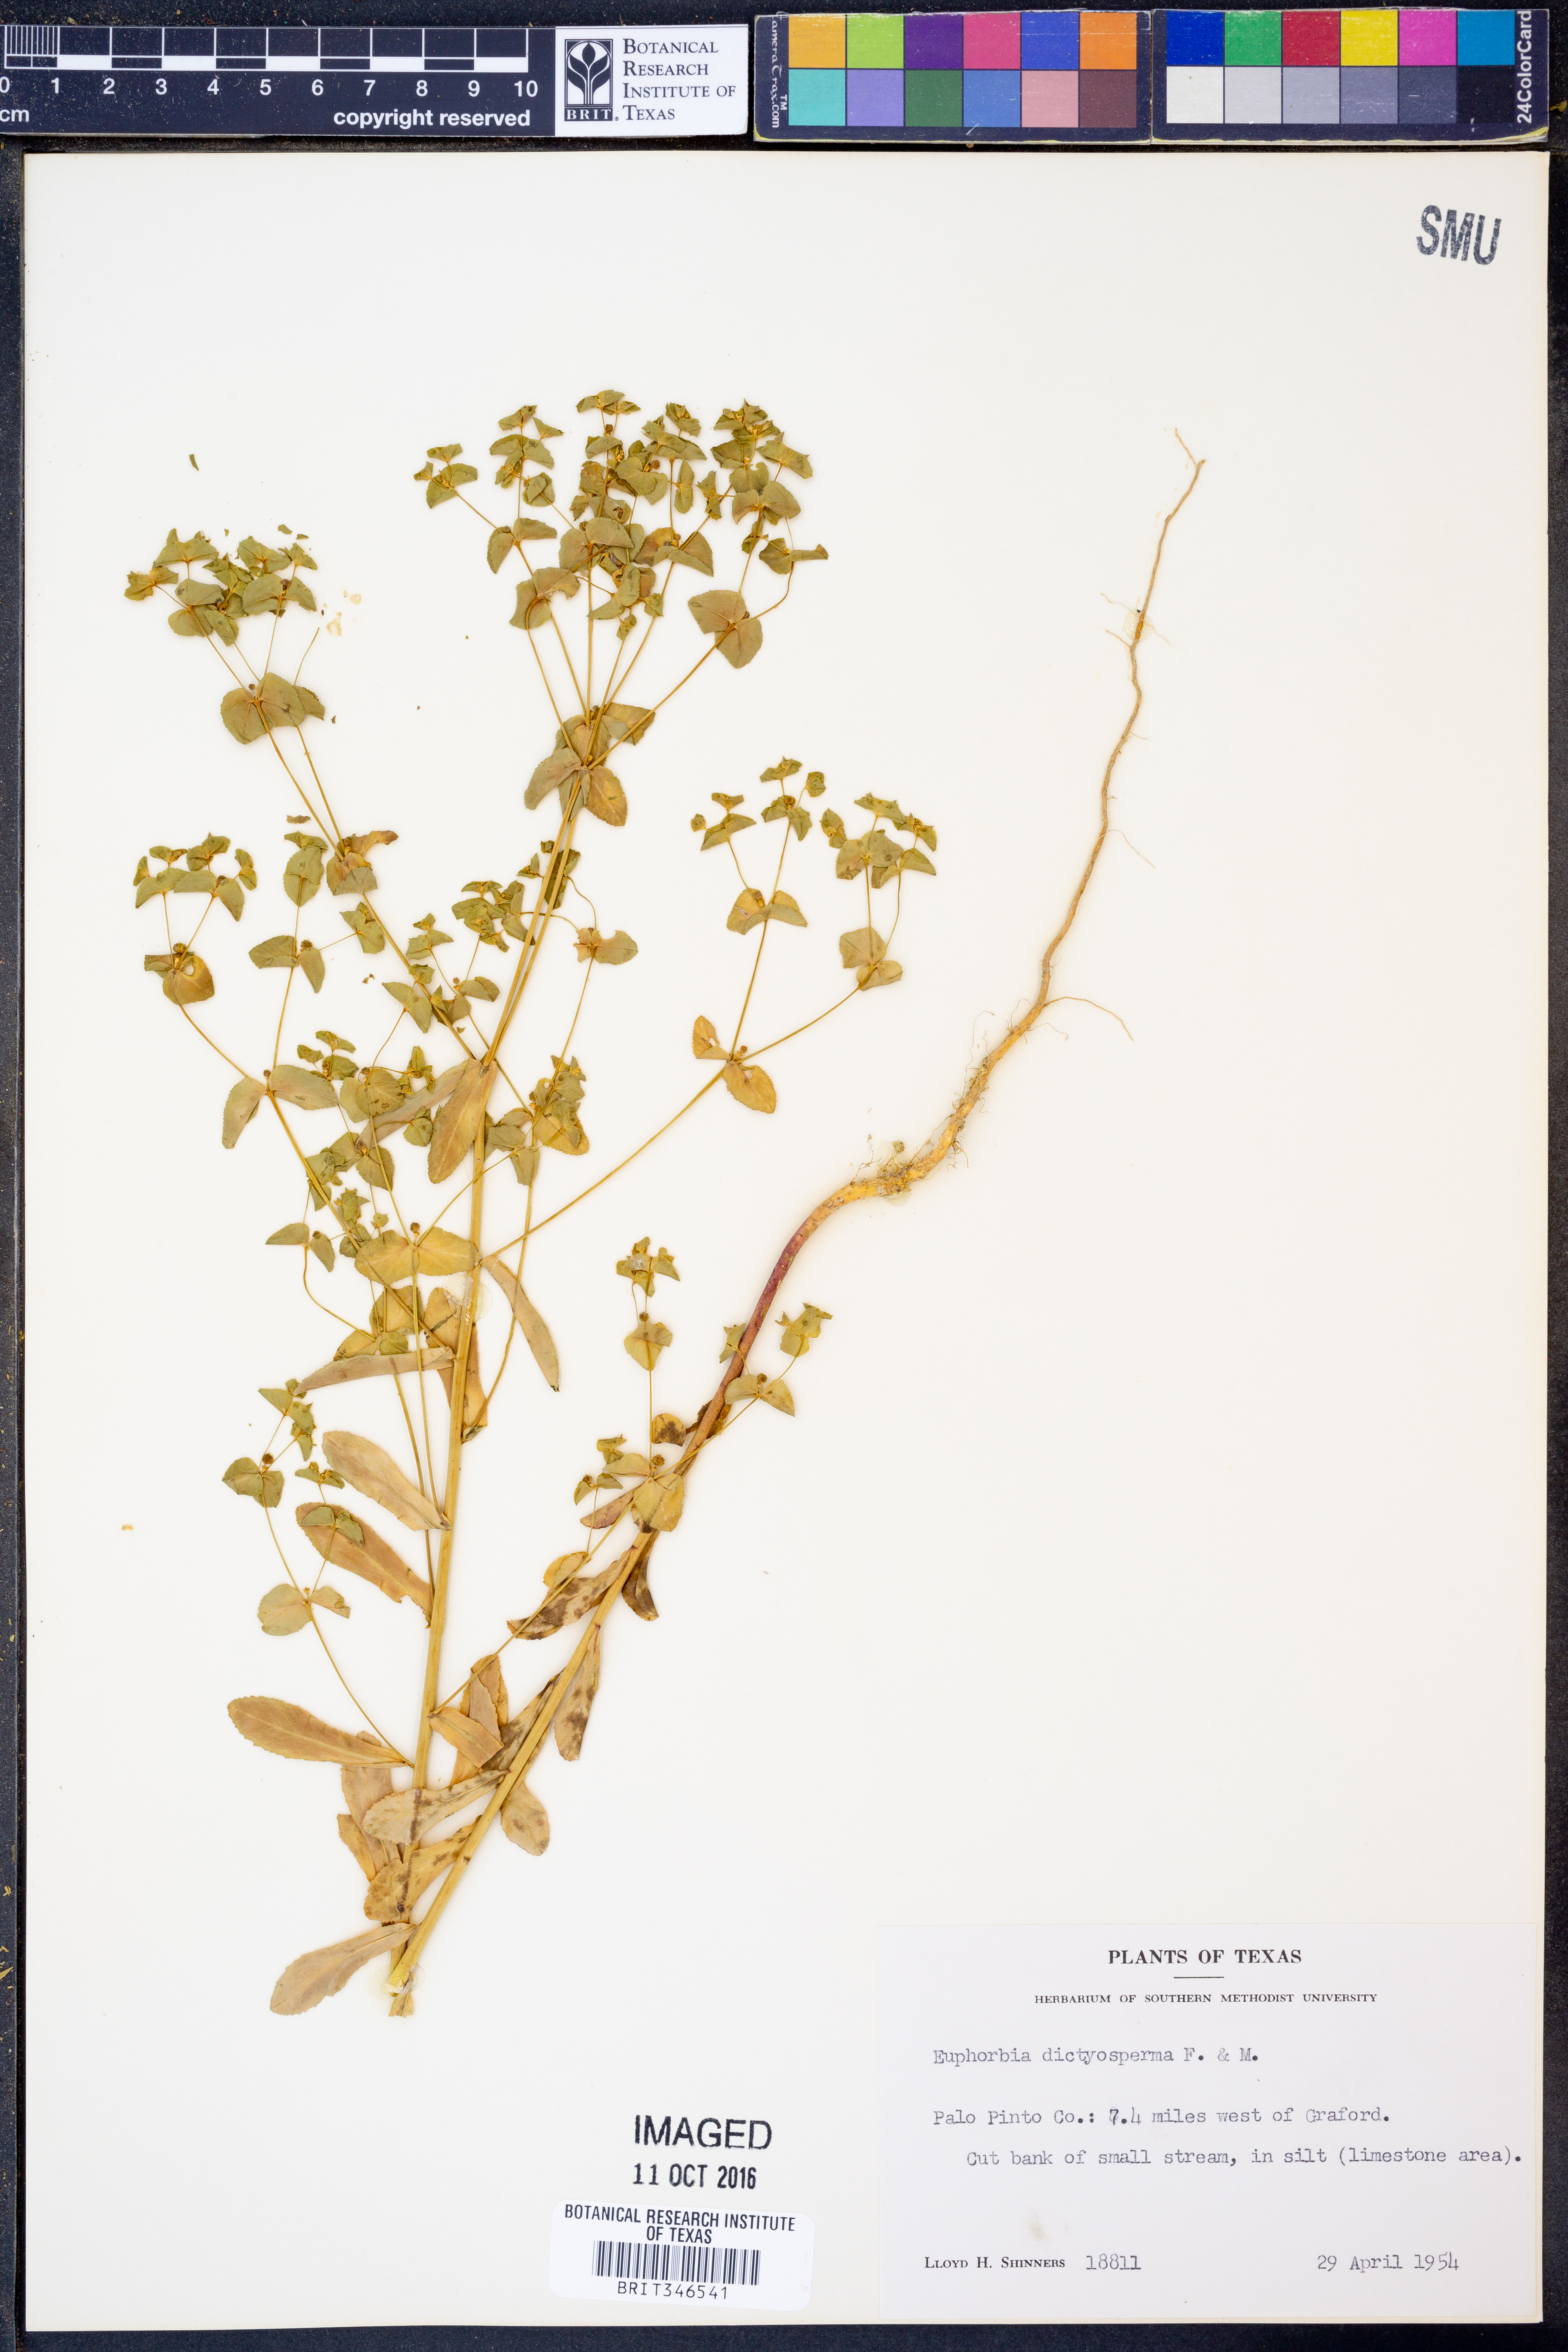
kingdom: Plantae
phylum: Tracheophyta
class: Magnoliopsida
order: Malpighiales
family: Euphorbiaceae
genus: Euphorbia
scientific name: Euphorbia spathulata
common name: Blunt spurge
